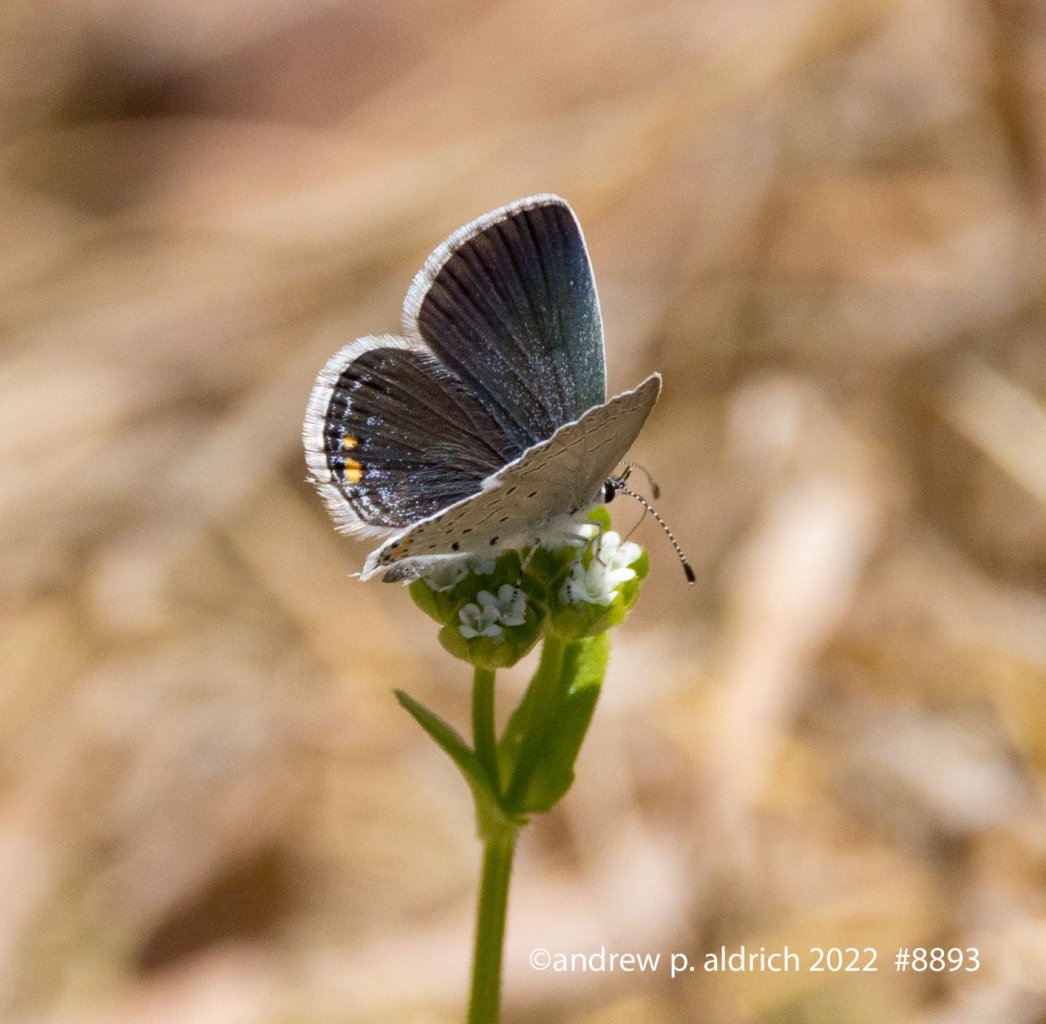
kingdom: Animalia
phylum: Arthropoda
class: Insecta
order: Lepidoptera
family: Lycaenidae
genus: Elkalyce
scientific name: Elkalyce comyntas
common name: Eastern Tailed-Blue
